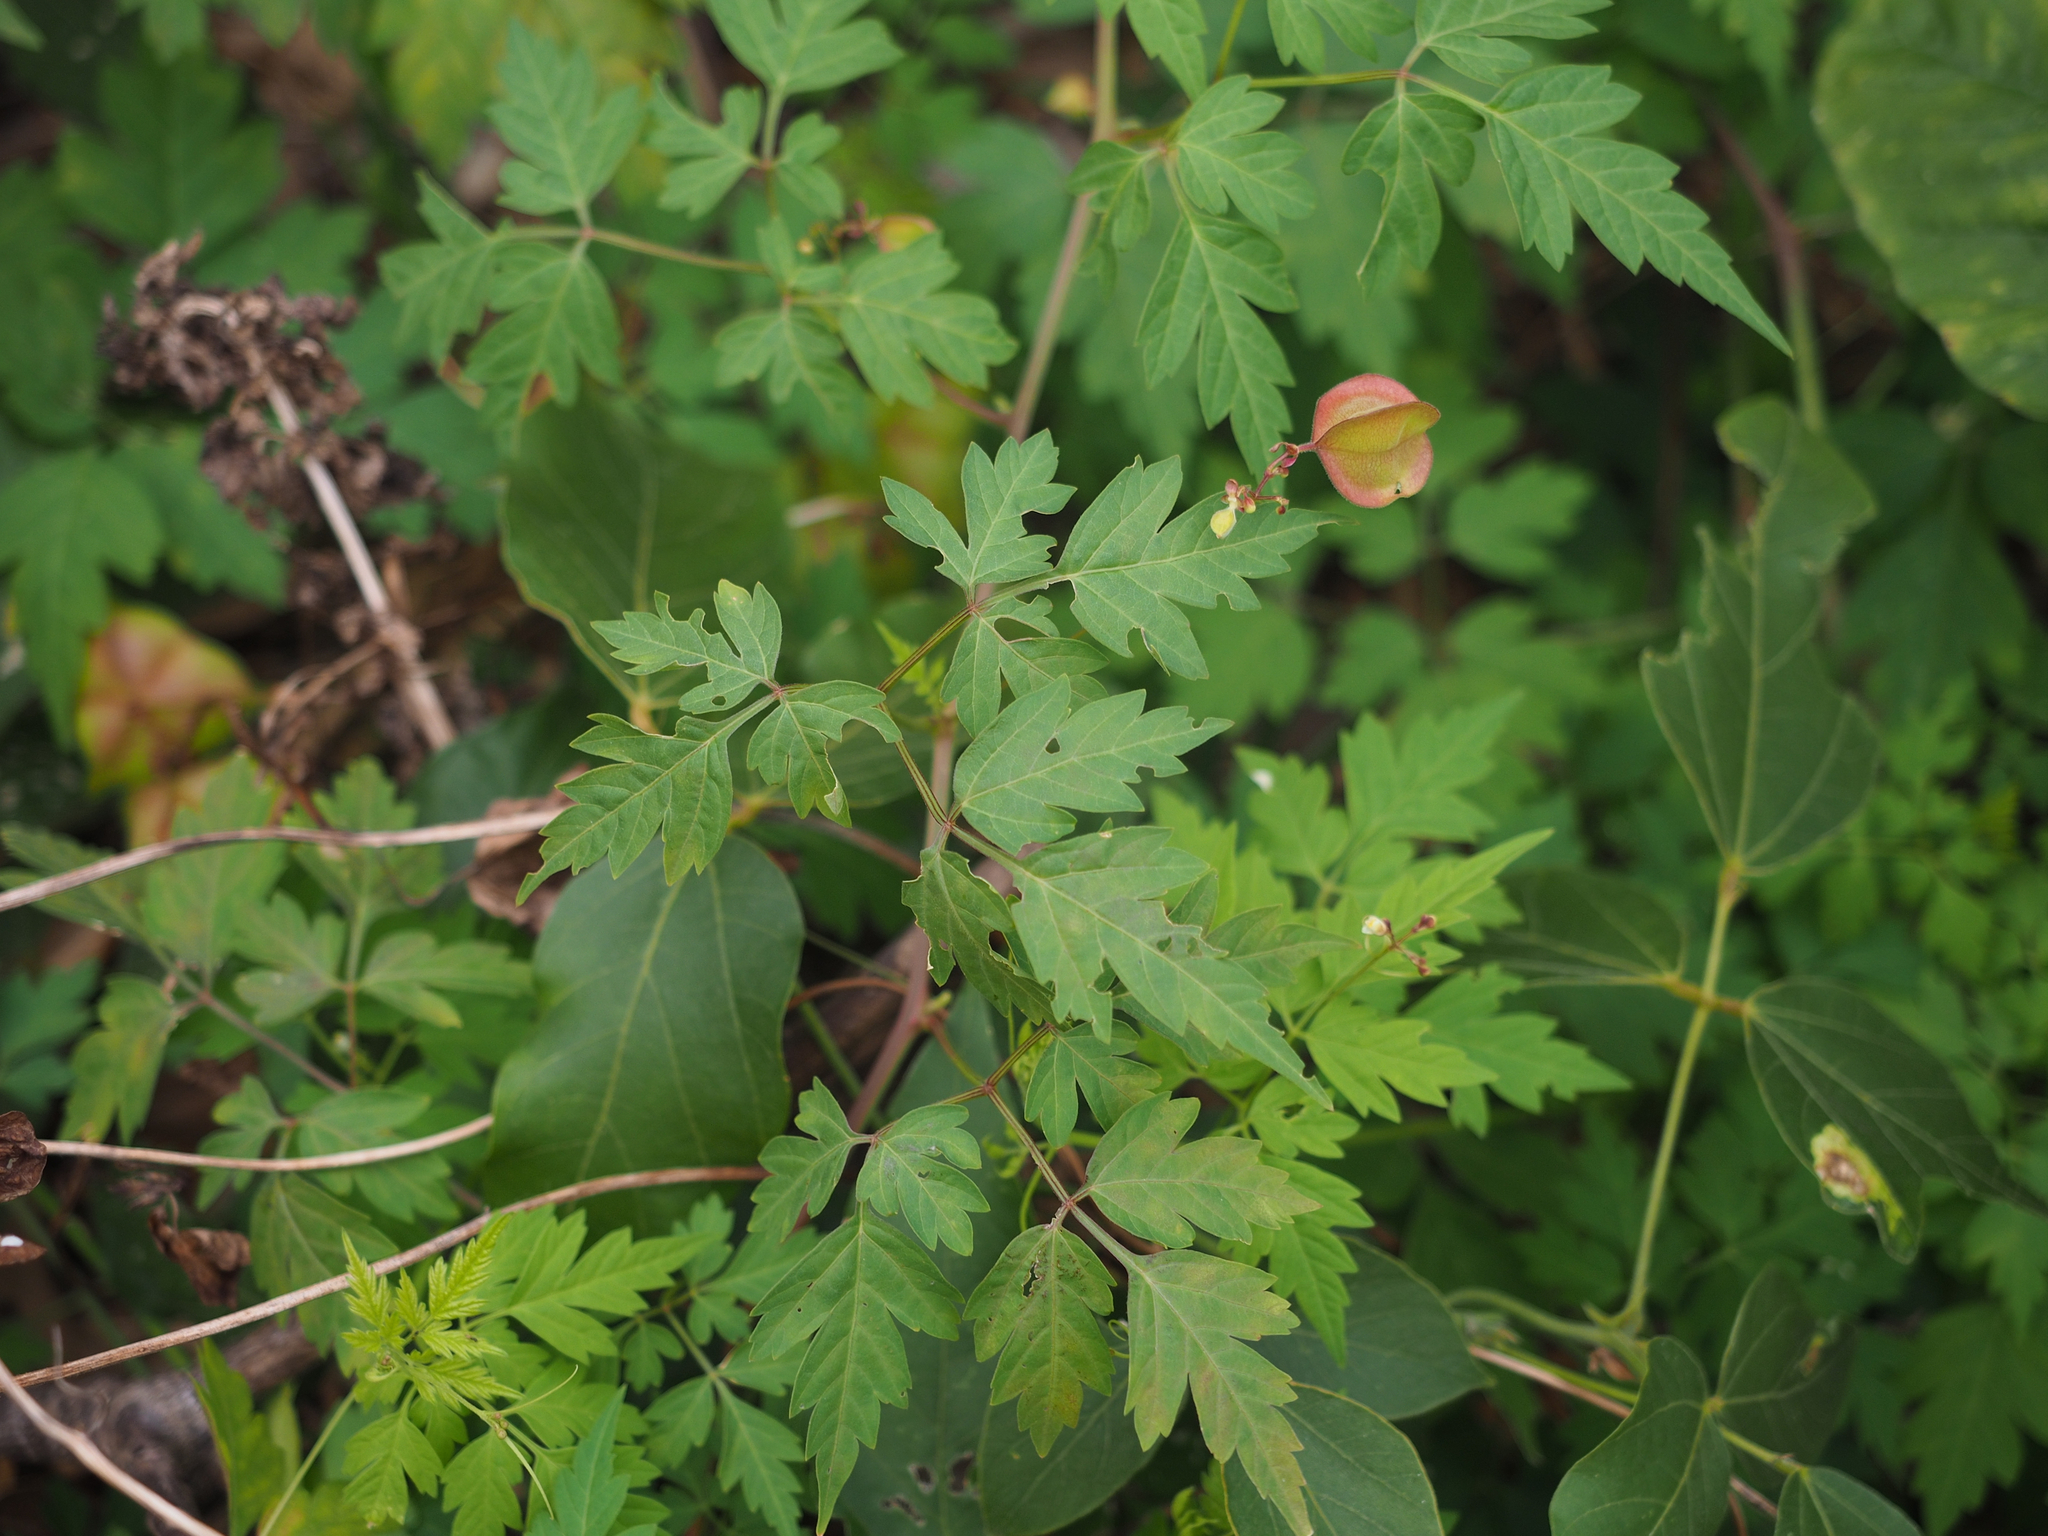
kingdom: Plantae
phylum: Tracheophyta
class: Magnoliopsida
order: Sapindales
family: Sapindaceae
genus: Cardiospermum
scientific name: Cardiospermum halicacabum
